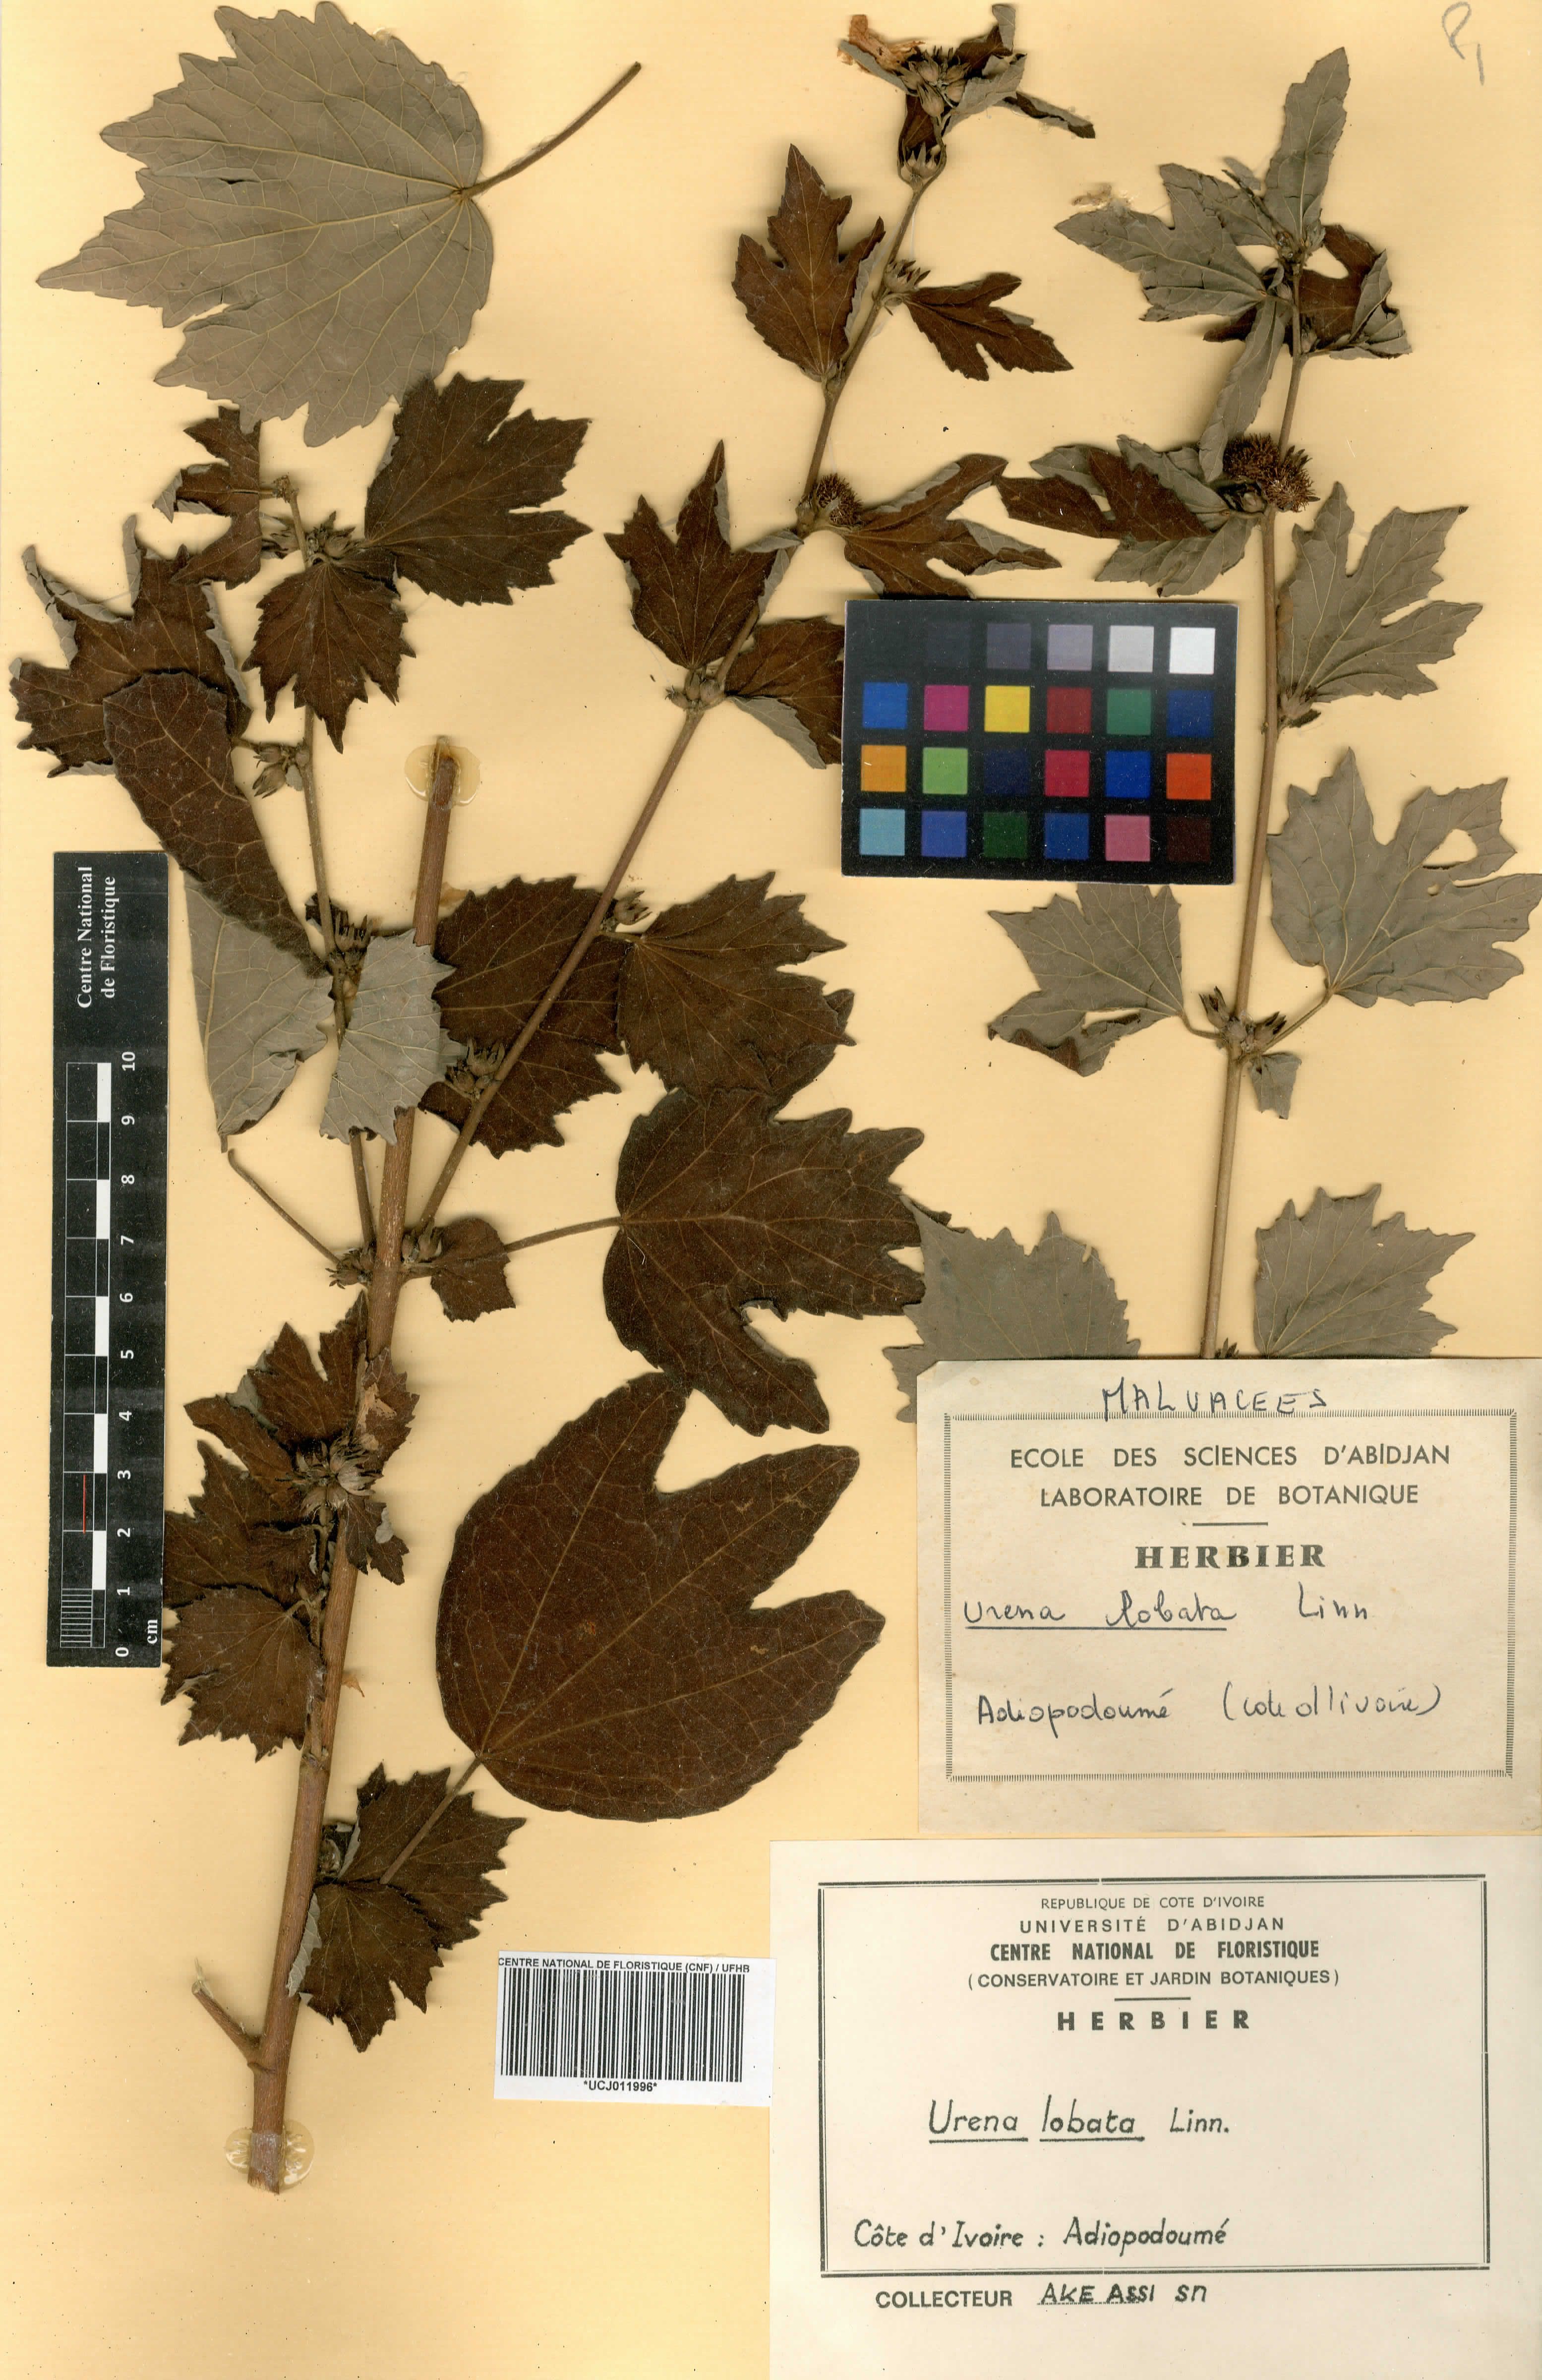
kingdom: Plantae
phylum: Tracheophyta
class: Magnoliopsida
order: Malvales
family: Malvaceae
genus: Urena
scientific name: Urena lobata
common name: Caesarweed
